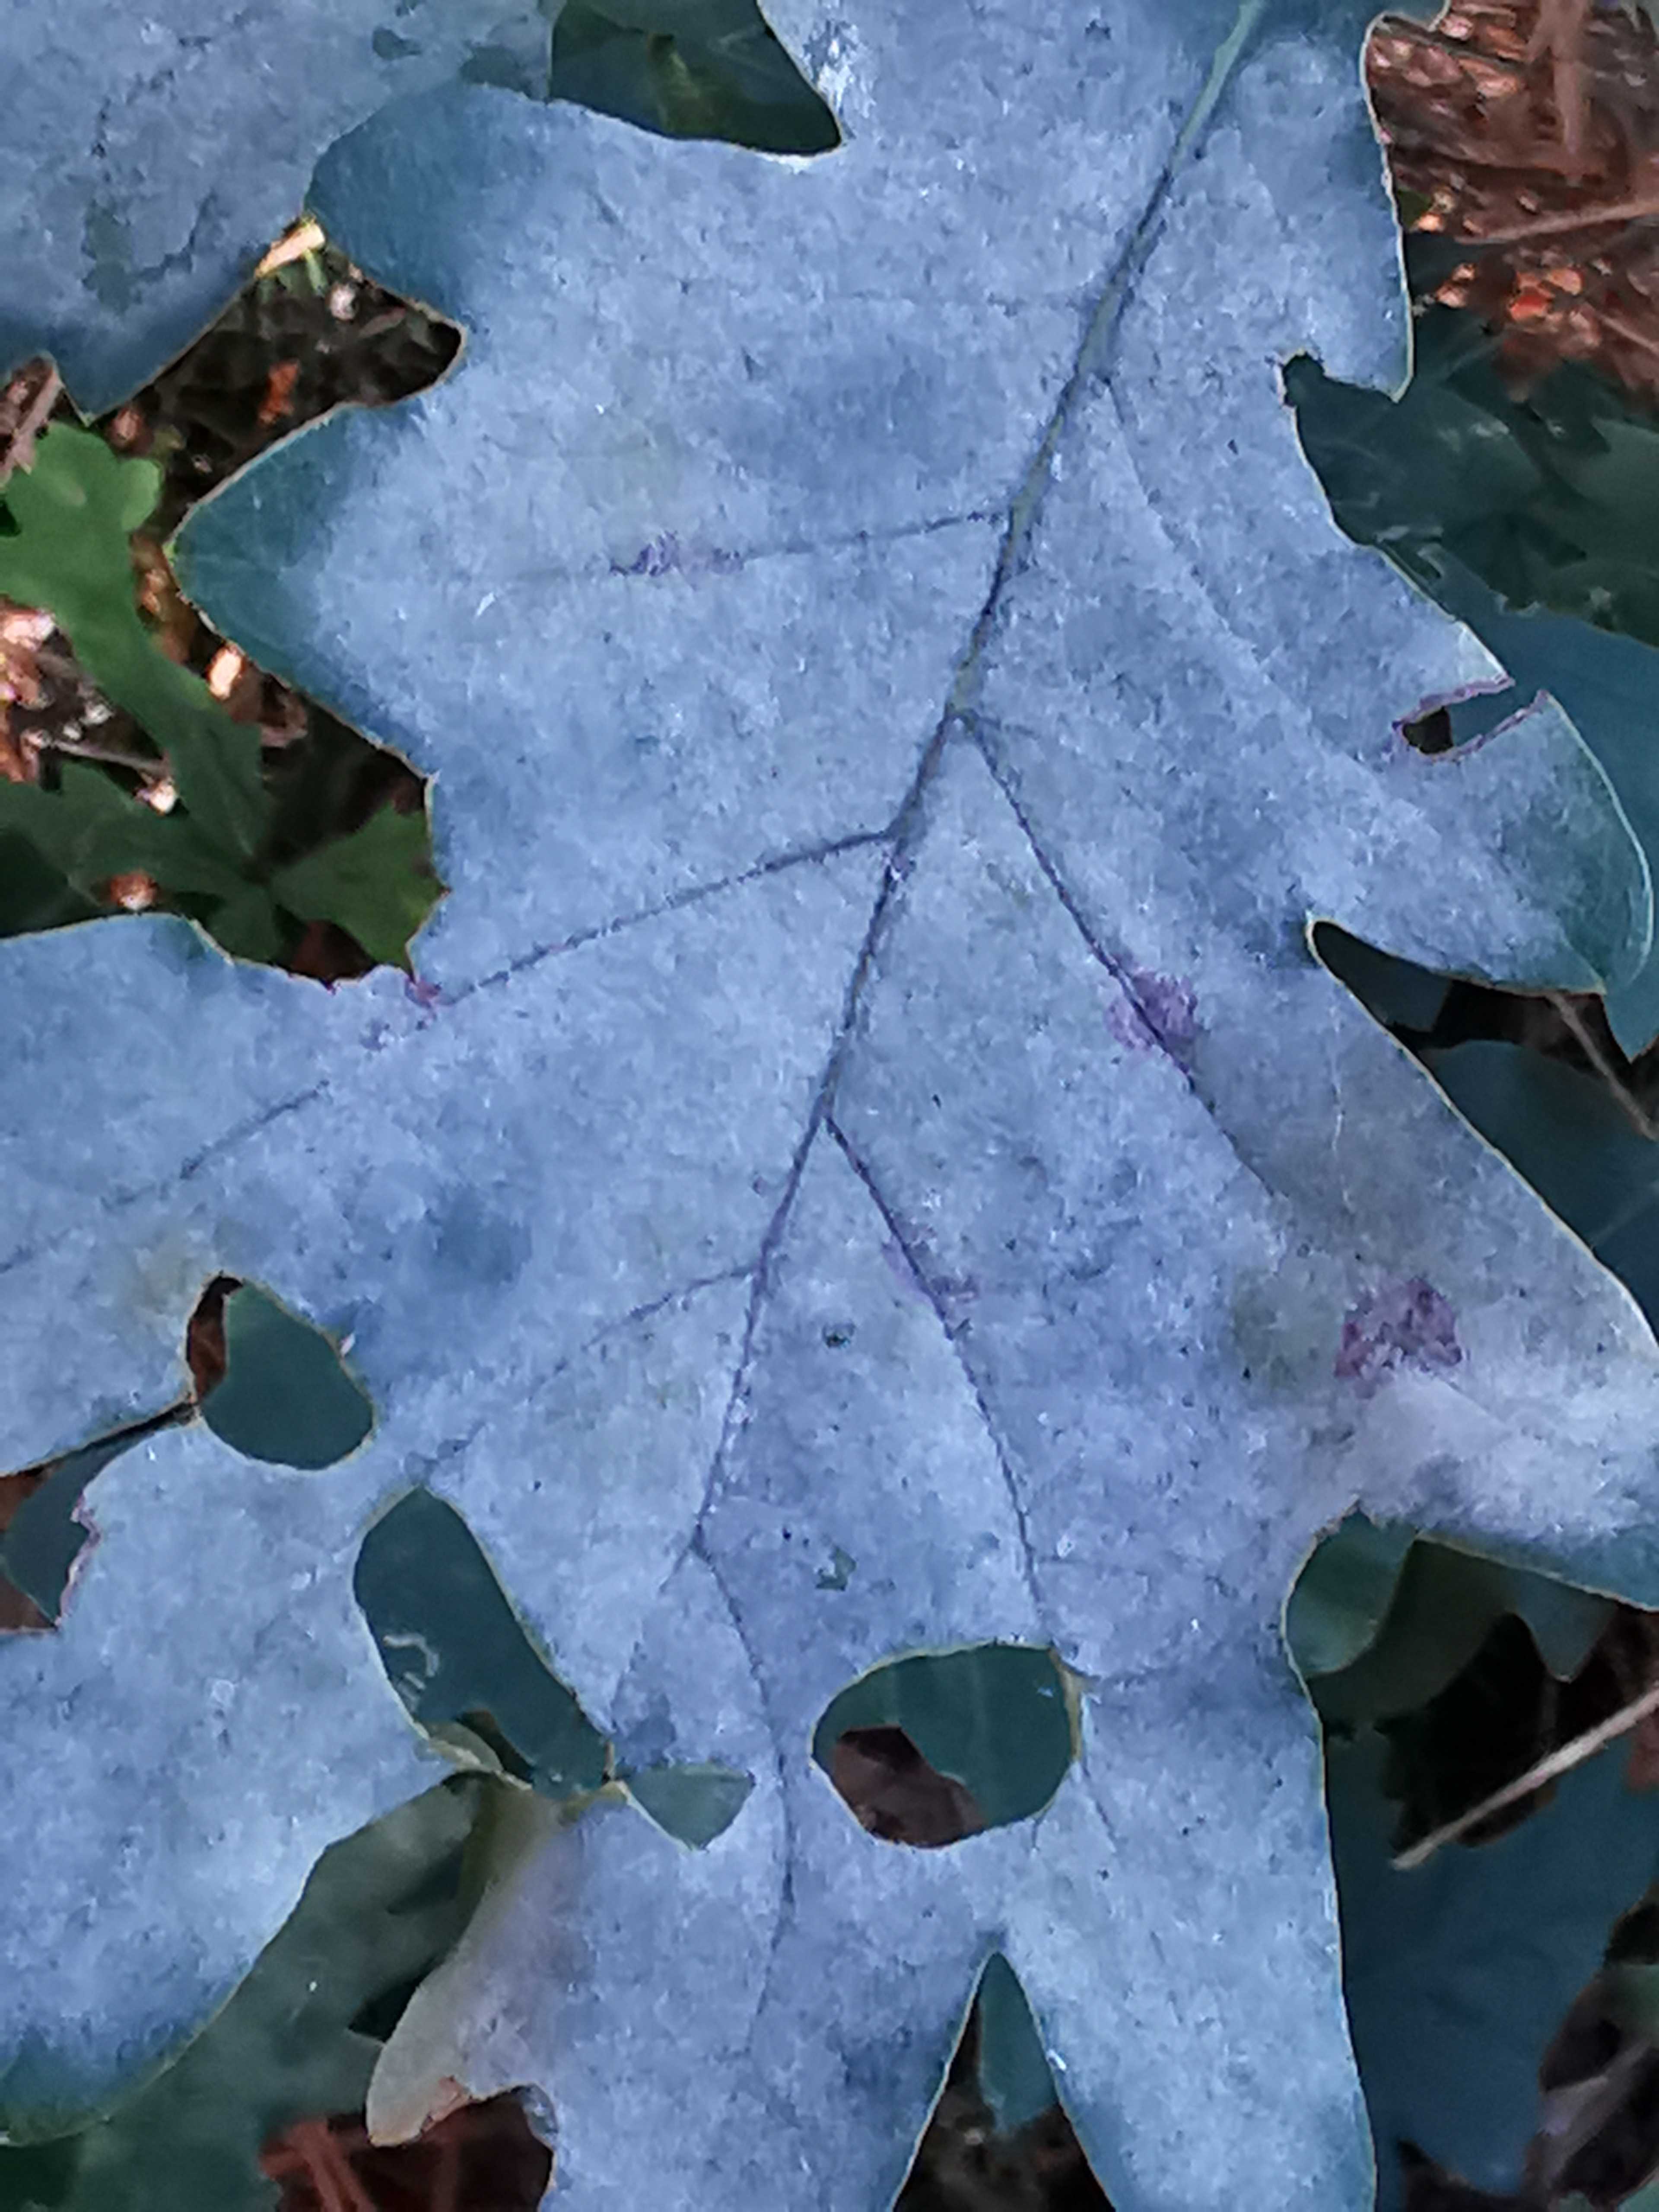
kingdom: Fungi
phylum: Ascomycota
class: Leotiomycetes
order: Helotiales
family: Erysiphaceae
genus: Erysiphe
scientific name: Erysiphe alphitoides
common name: ege-meldug
